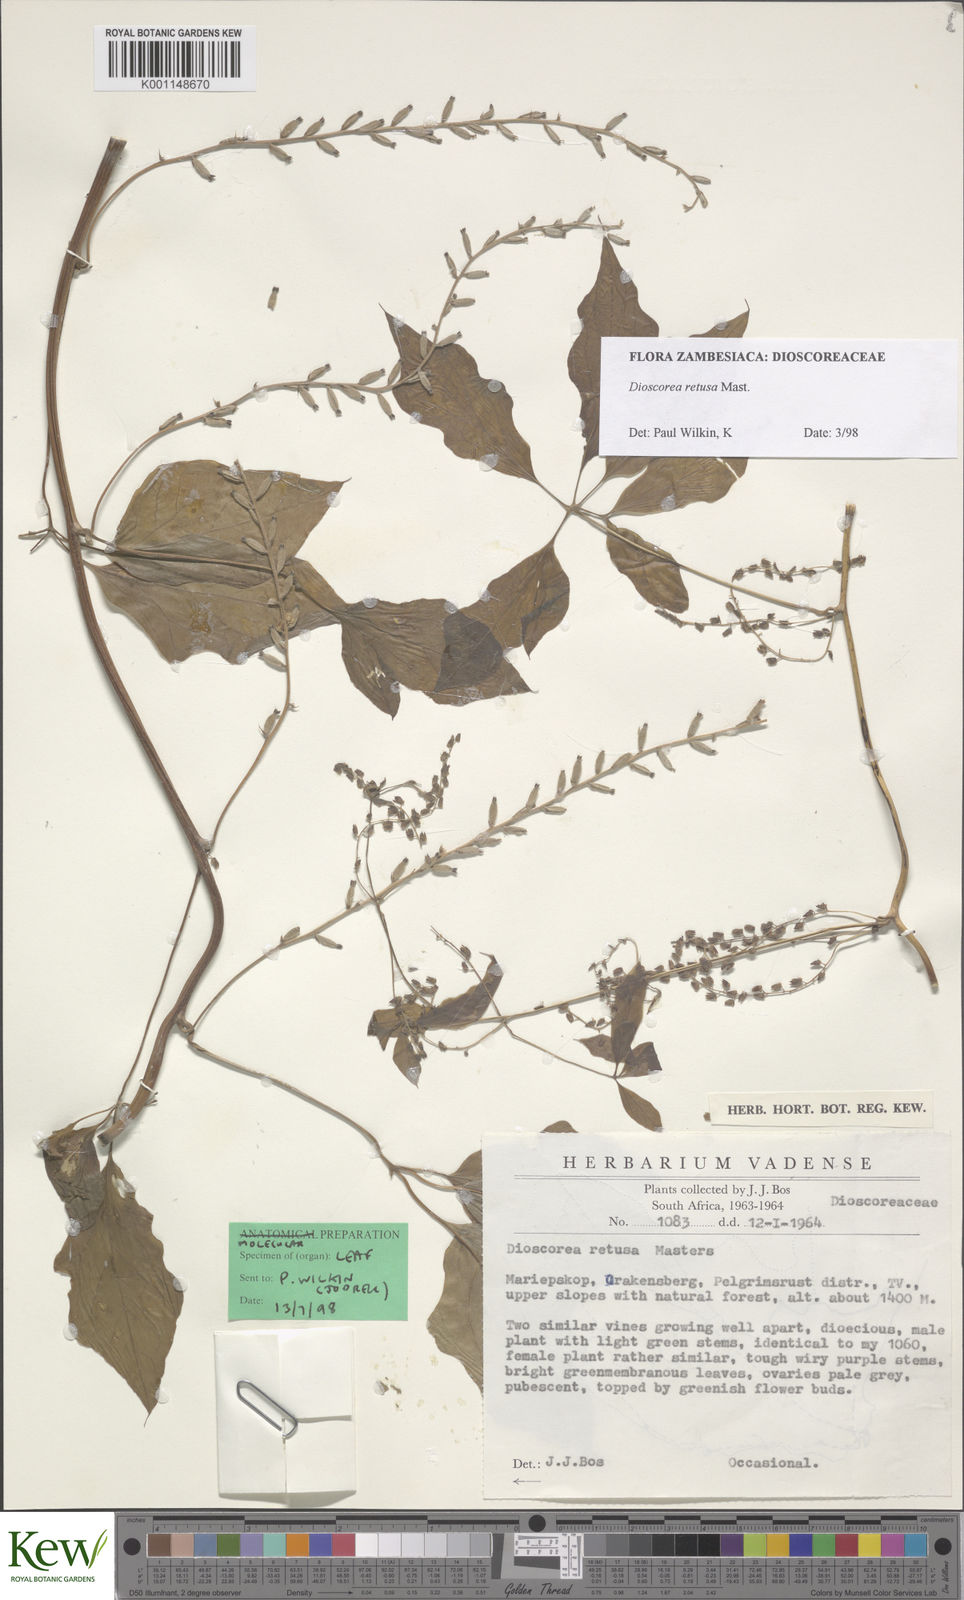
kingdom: Plantae
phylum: Tracheophyta
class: Liliopsida
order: Dioscoreales
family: Dioscoreaceae
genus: Dioscorea
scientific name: Dioscorea retusa
